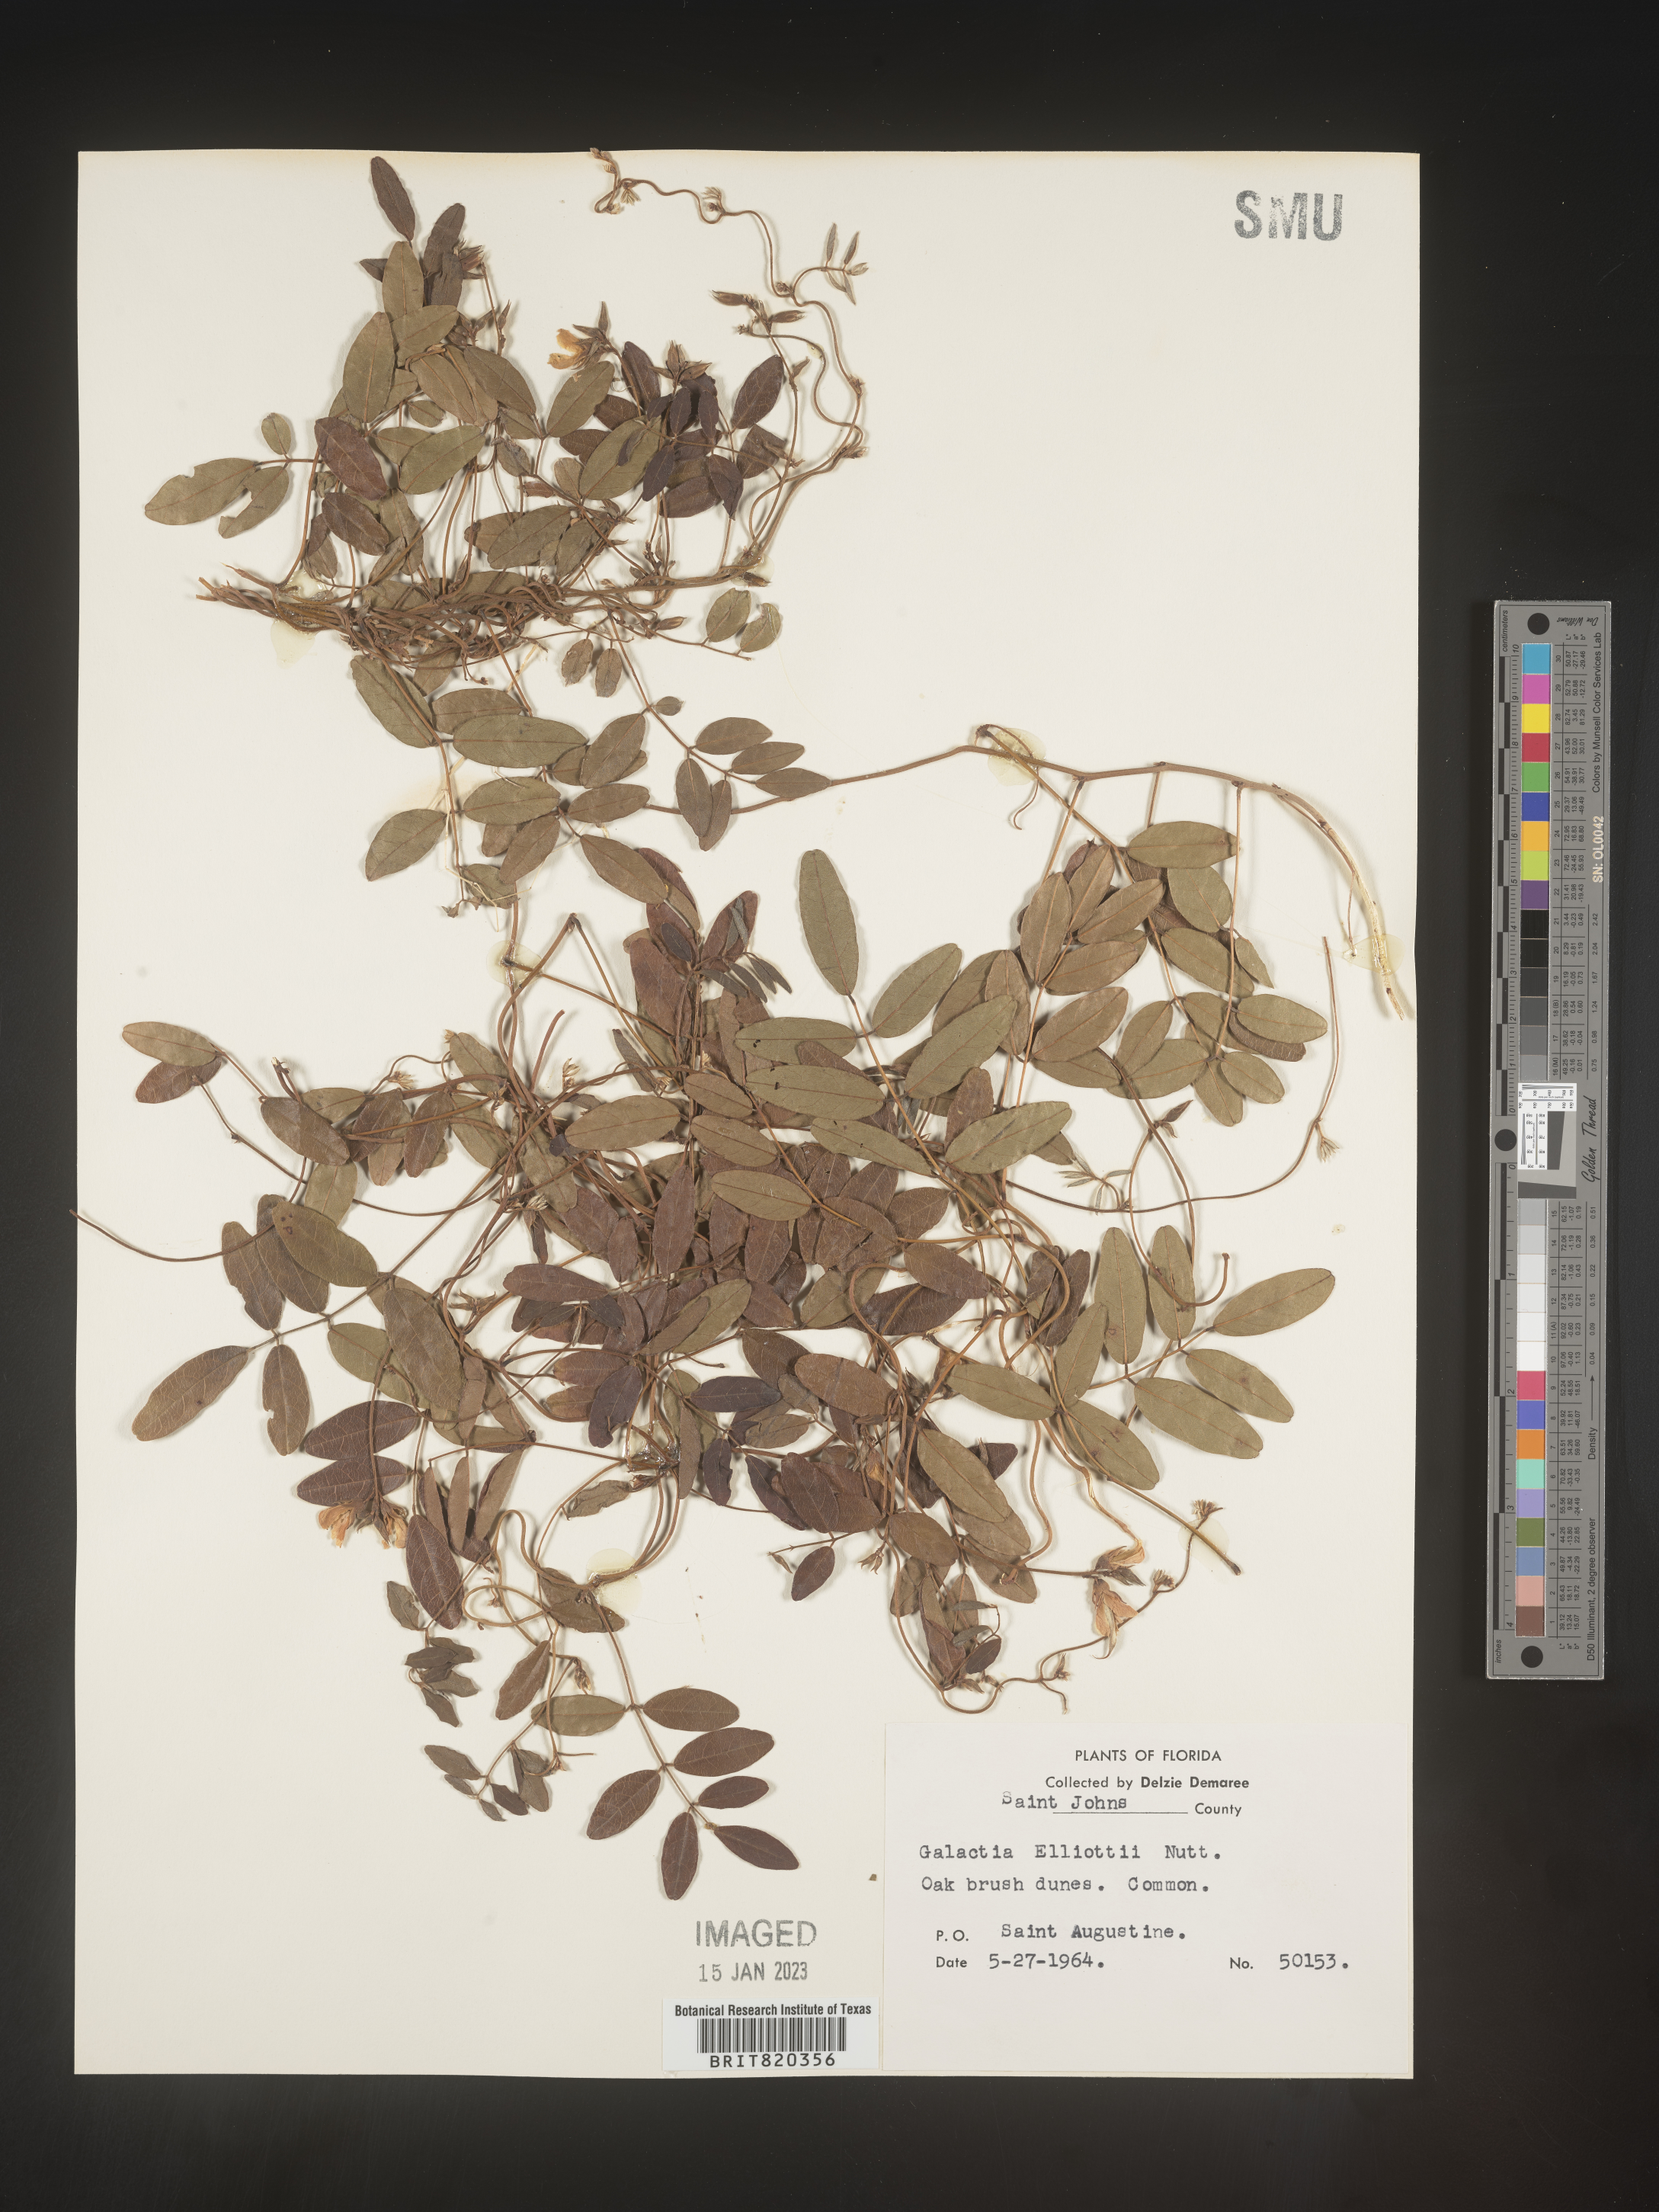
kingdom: Plantae
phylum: Tracheophyta
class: Magnoliopsida
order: Fabales
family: Fabaceae
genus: Galactia
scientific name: Galactia elliottii
